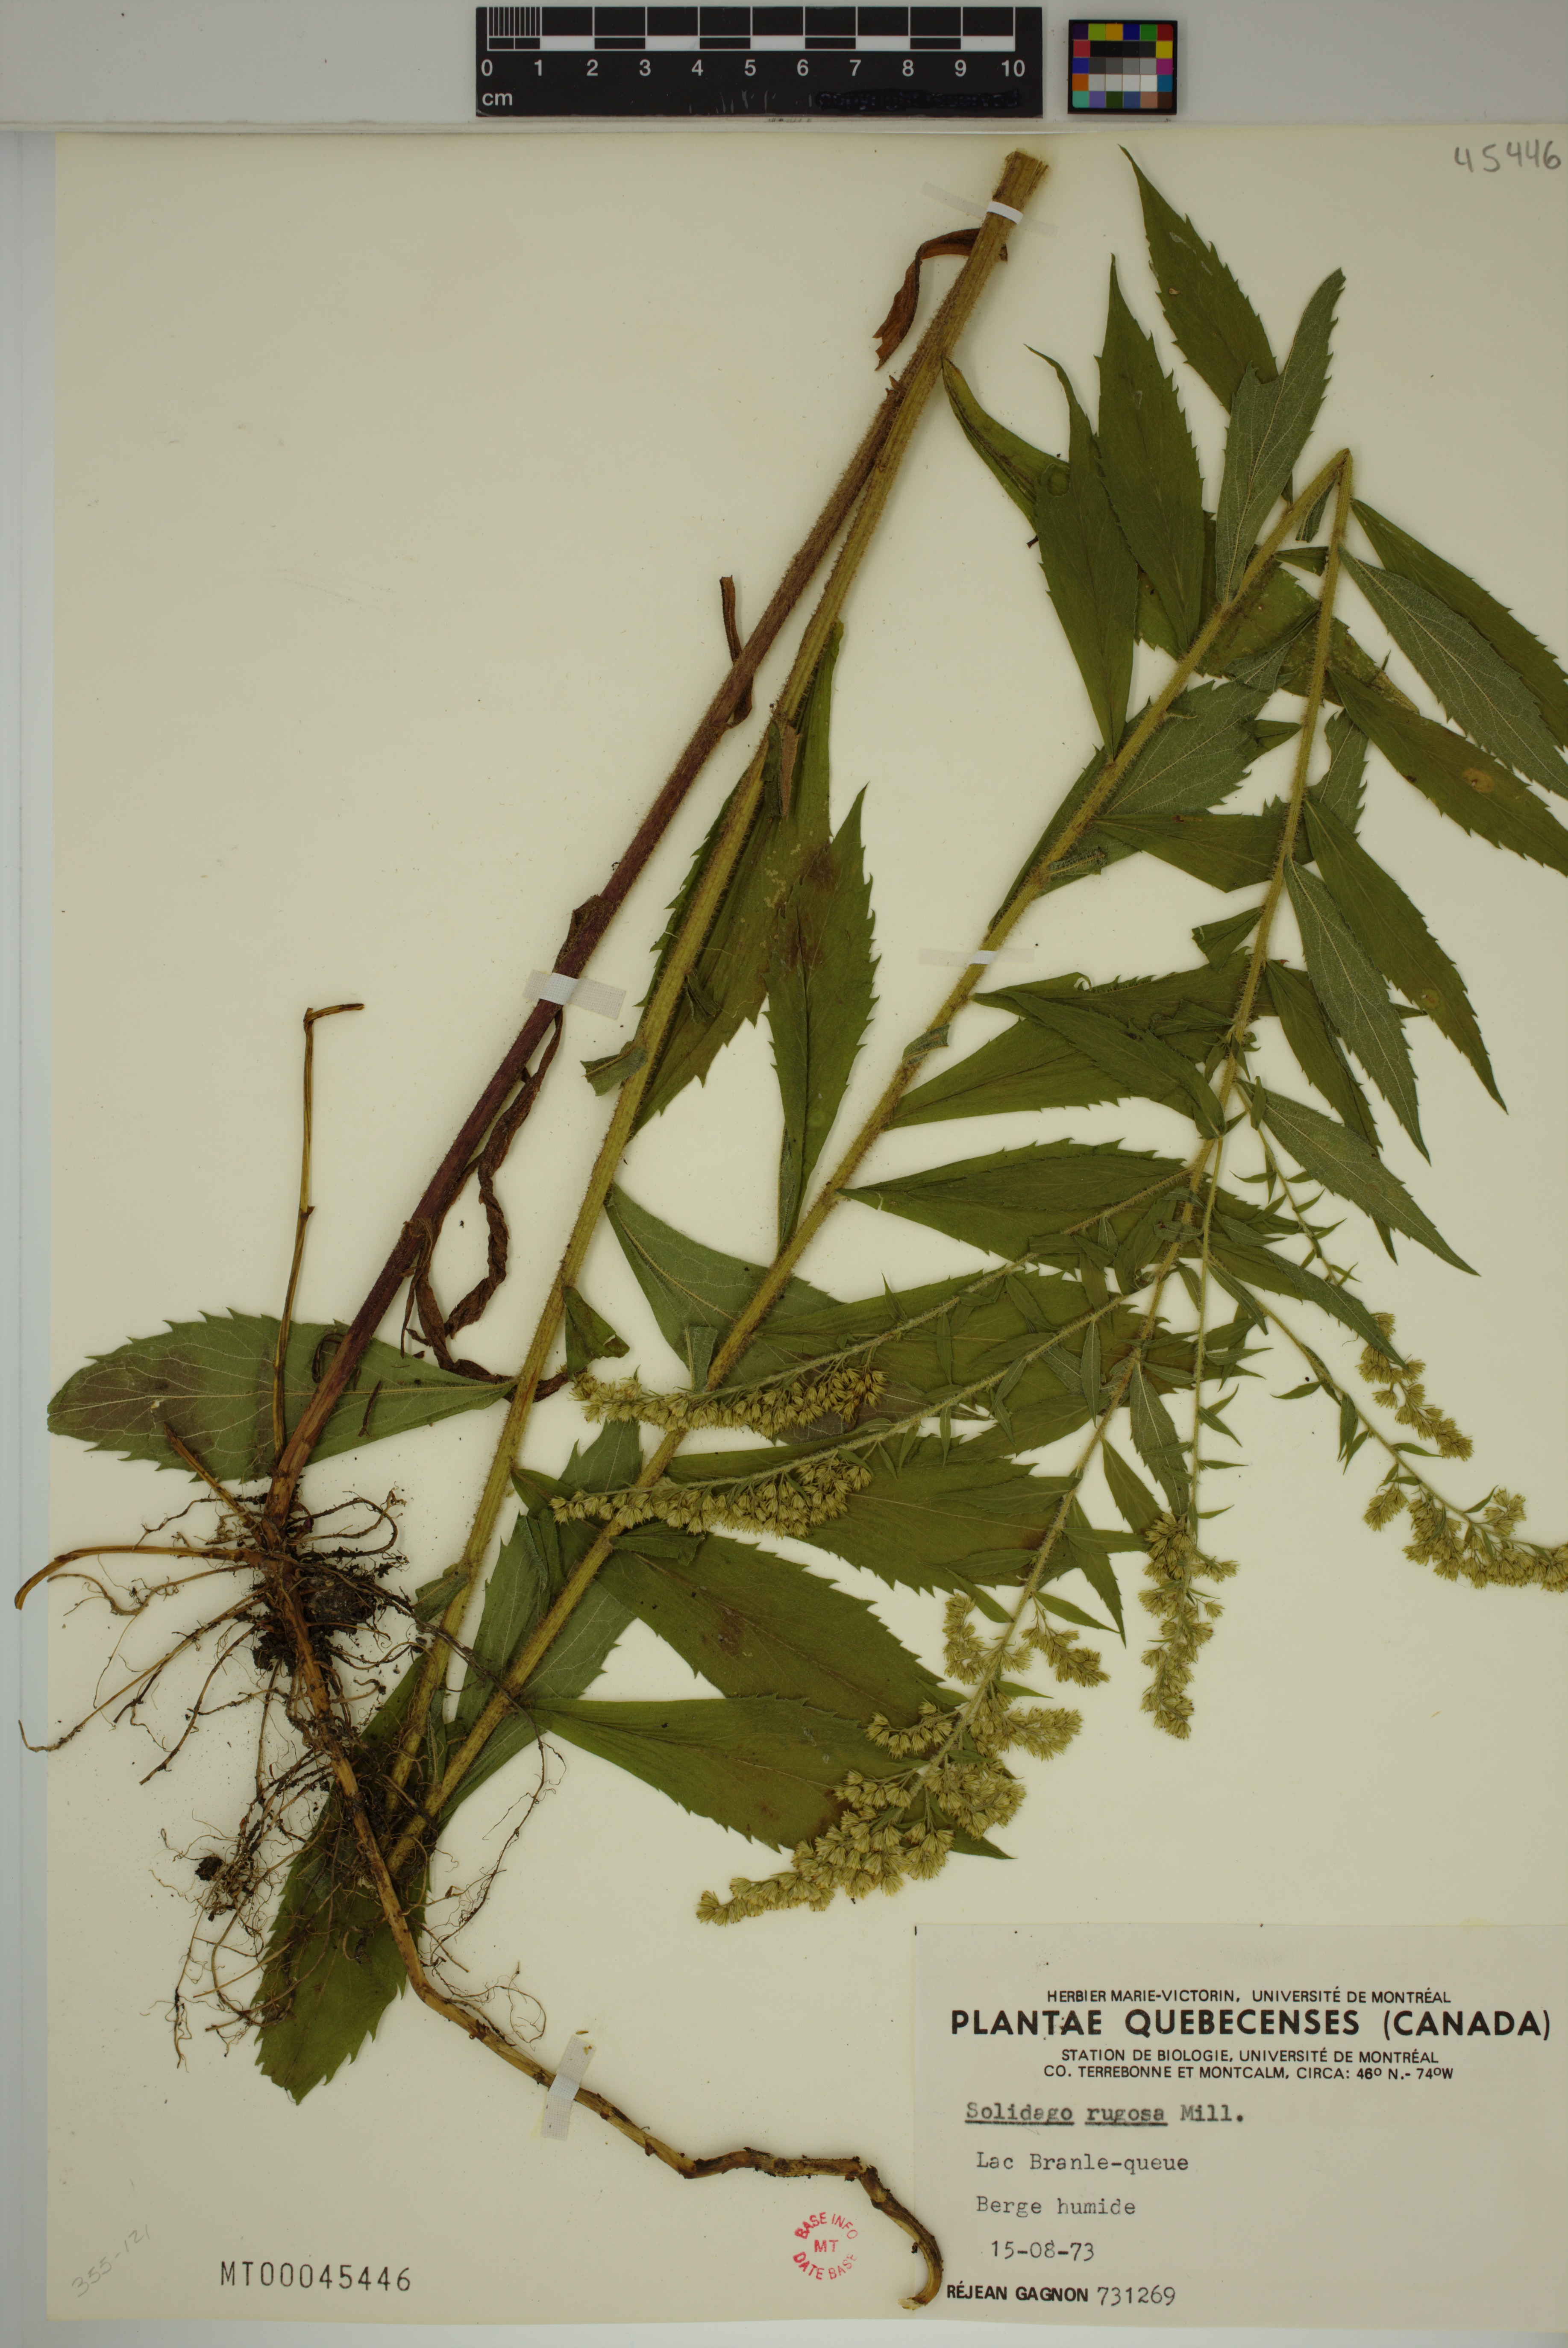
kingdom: Plantae
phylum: Tracheophyta
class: Magnoliopsida
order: Asterales
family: Asteraceae
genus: Solidago
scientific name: Solidago rugosa
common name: Rough-stemmed goldenrod
